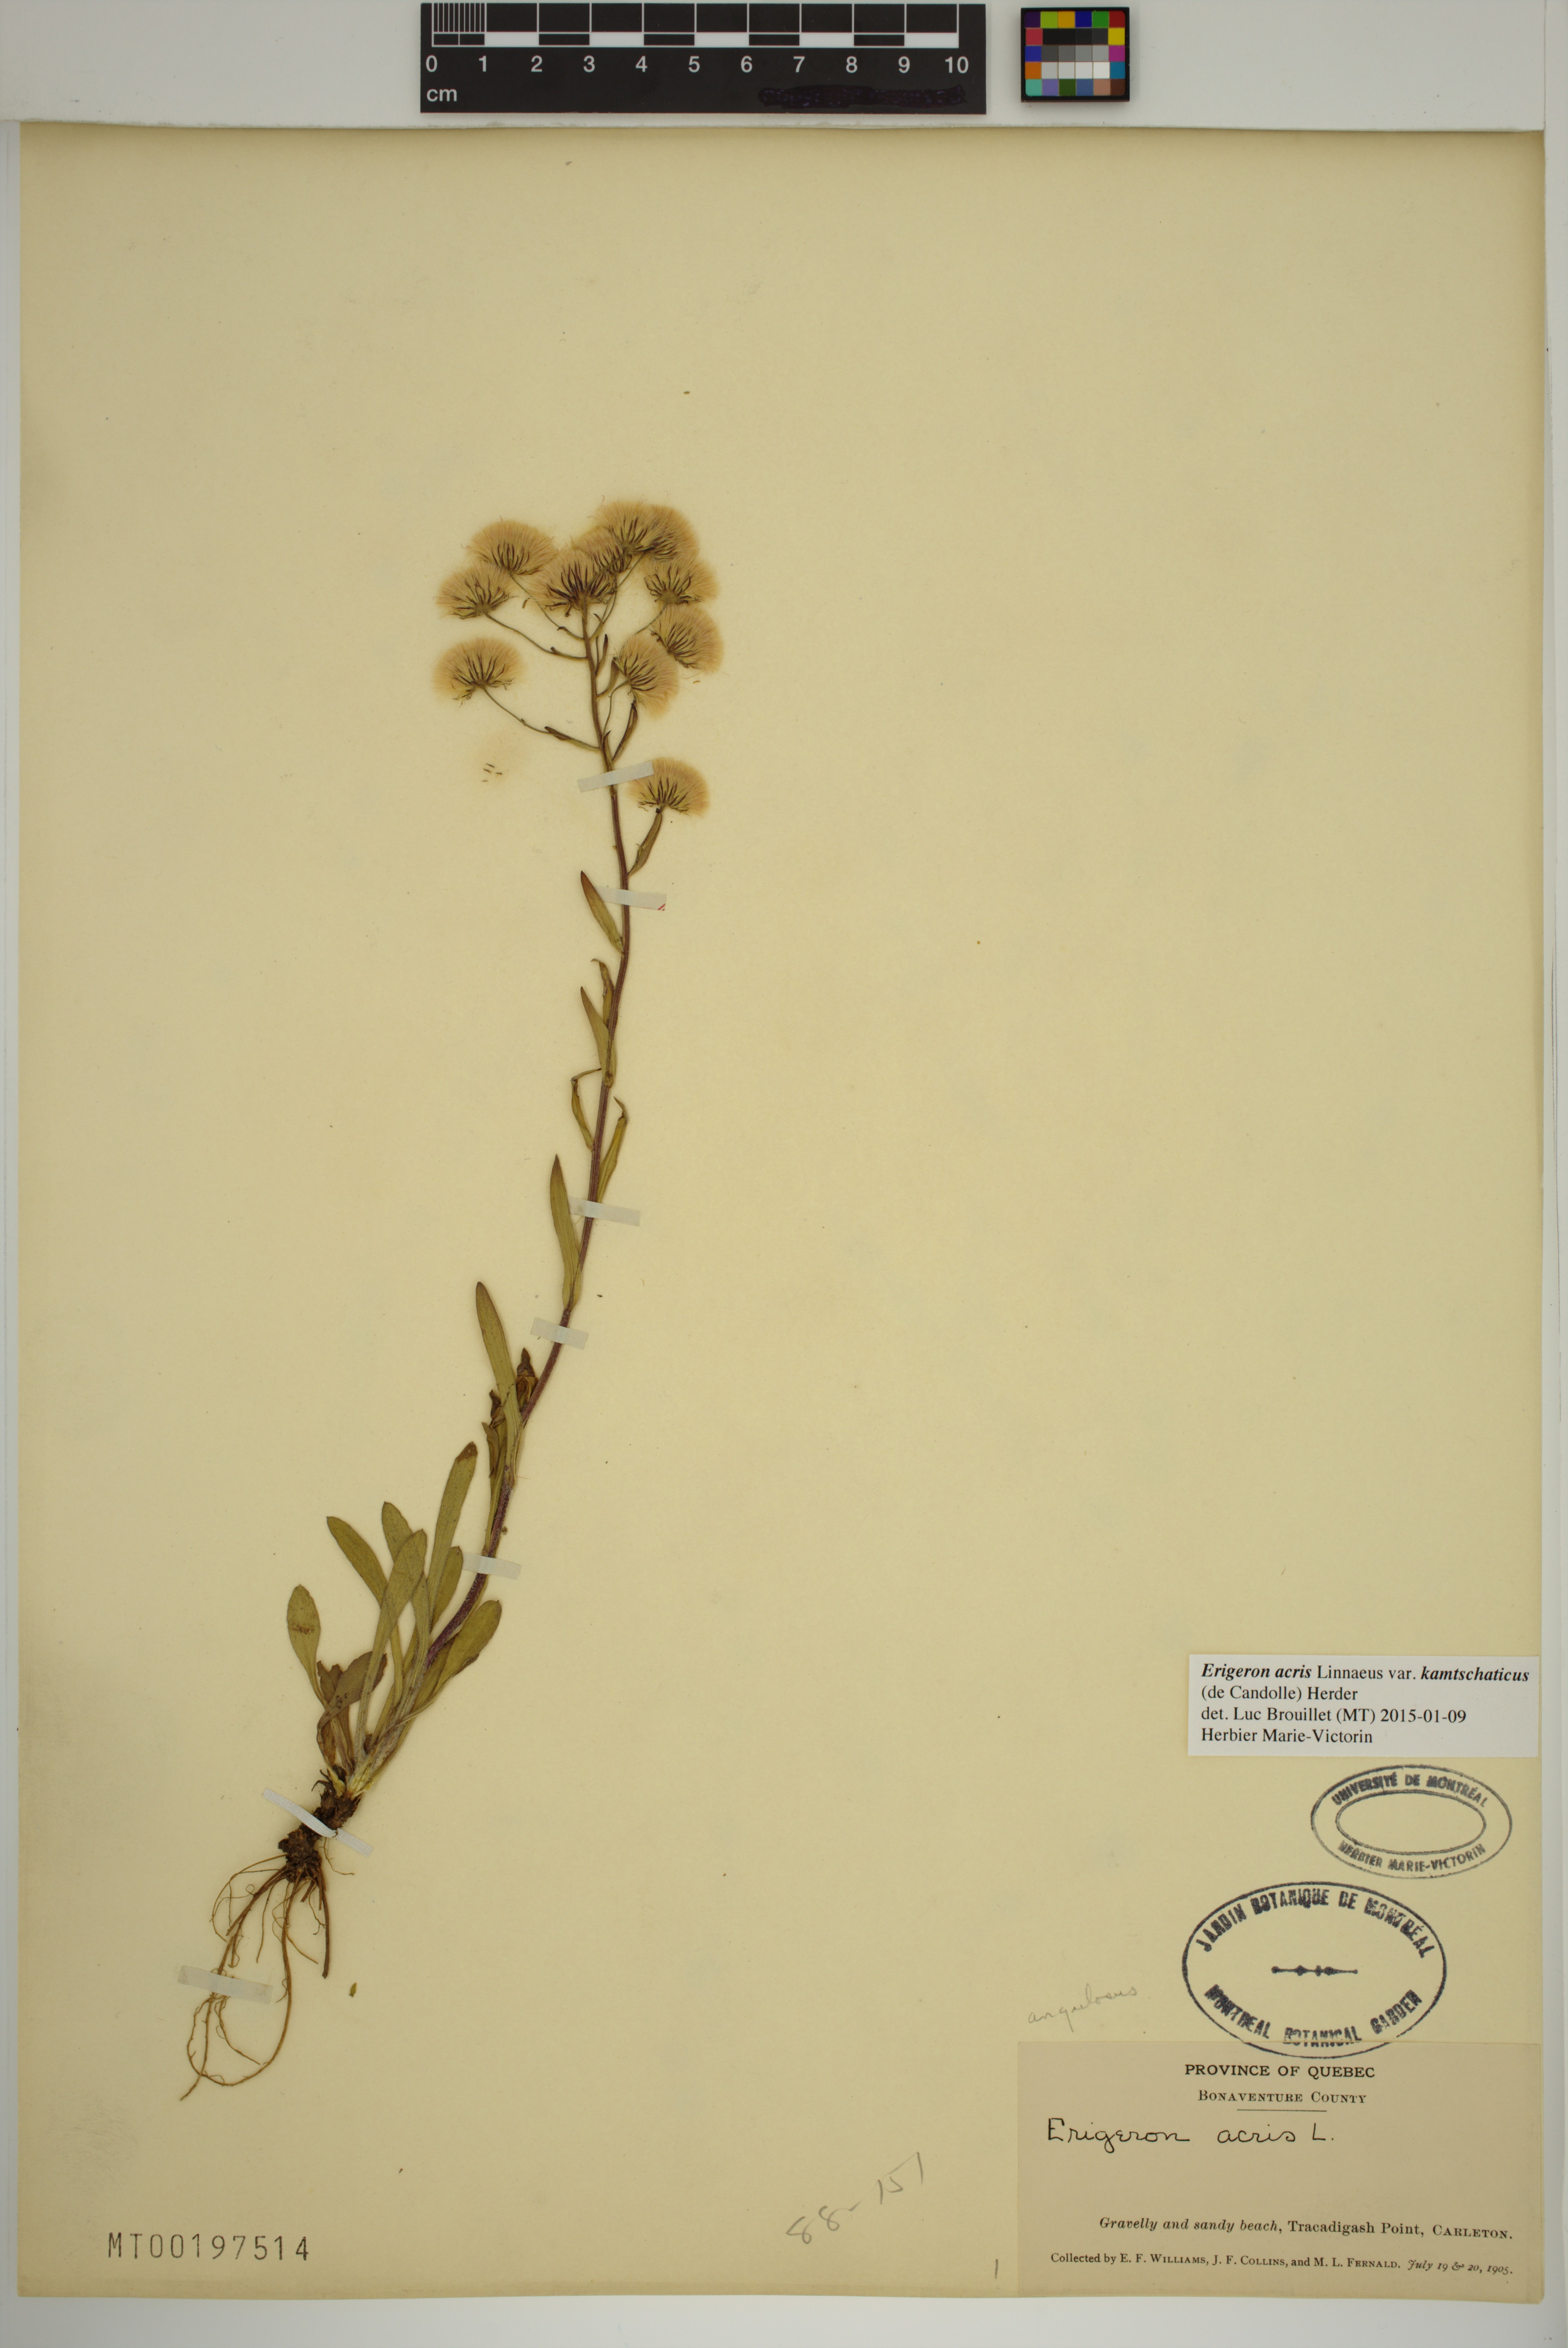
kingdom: Plantae
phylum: Tracheophyta
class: Magnoliopsida
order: Asterales
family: Asteraceae
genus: Erigeron
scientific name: Erigeron kamtschaticus
